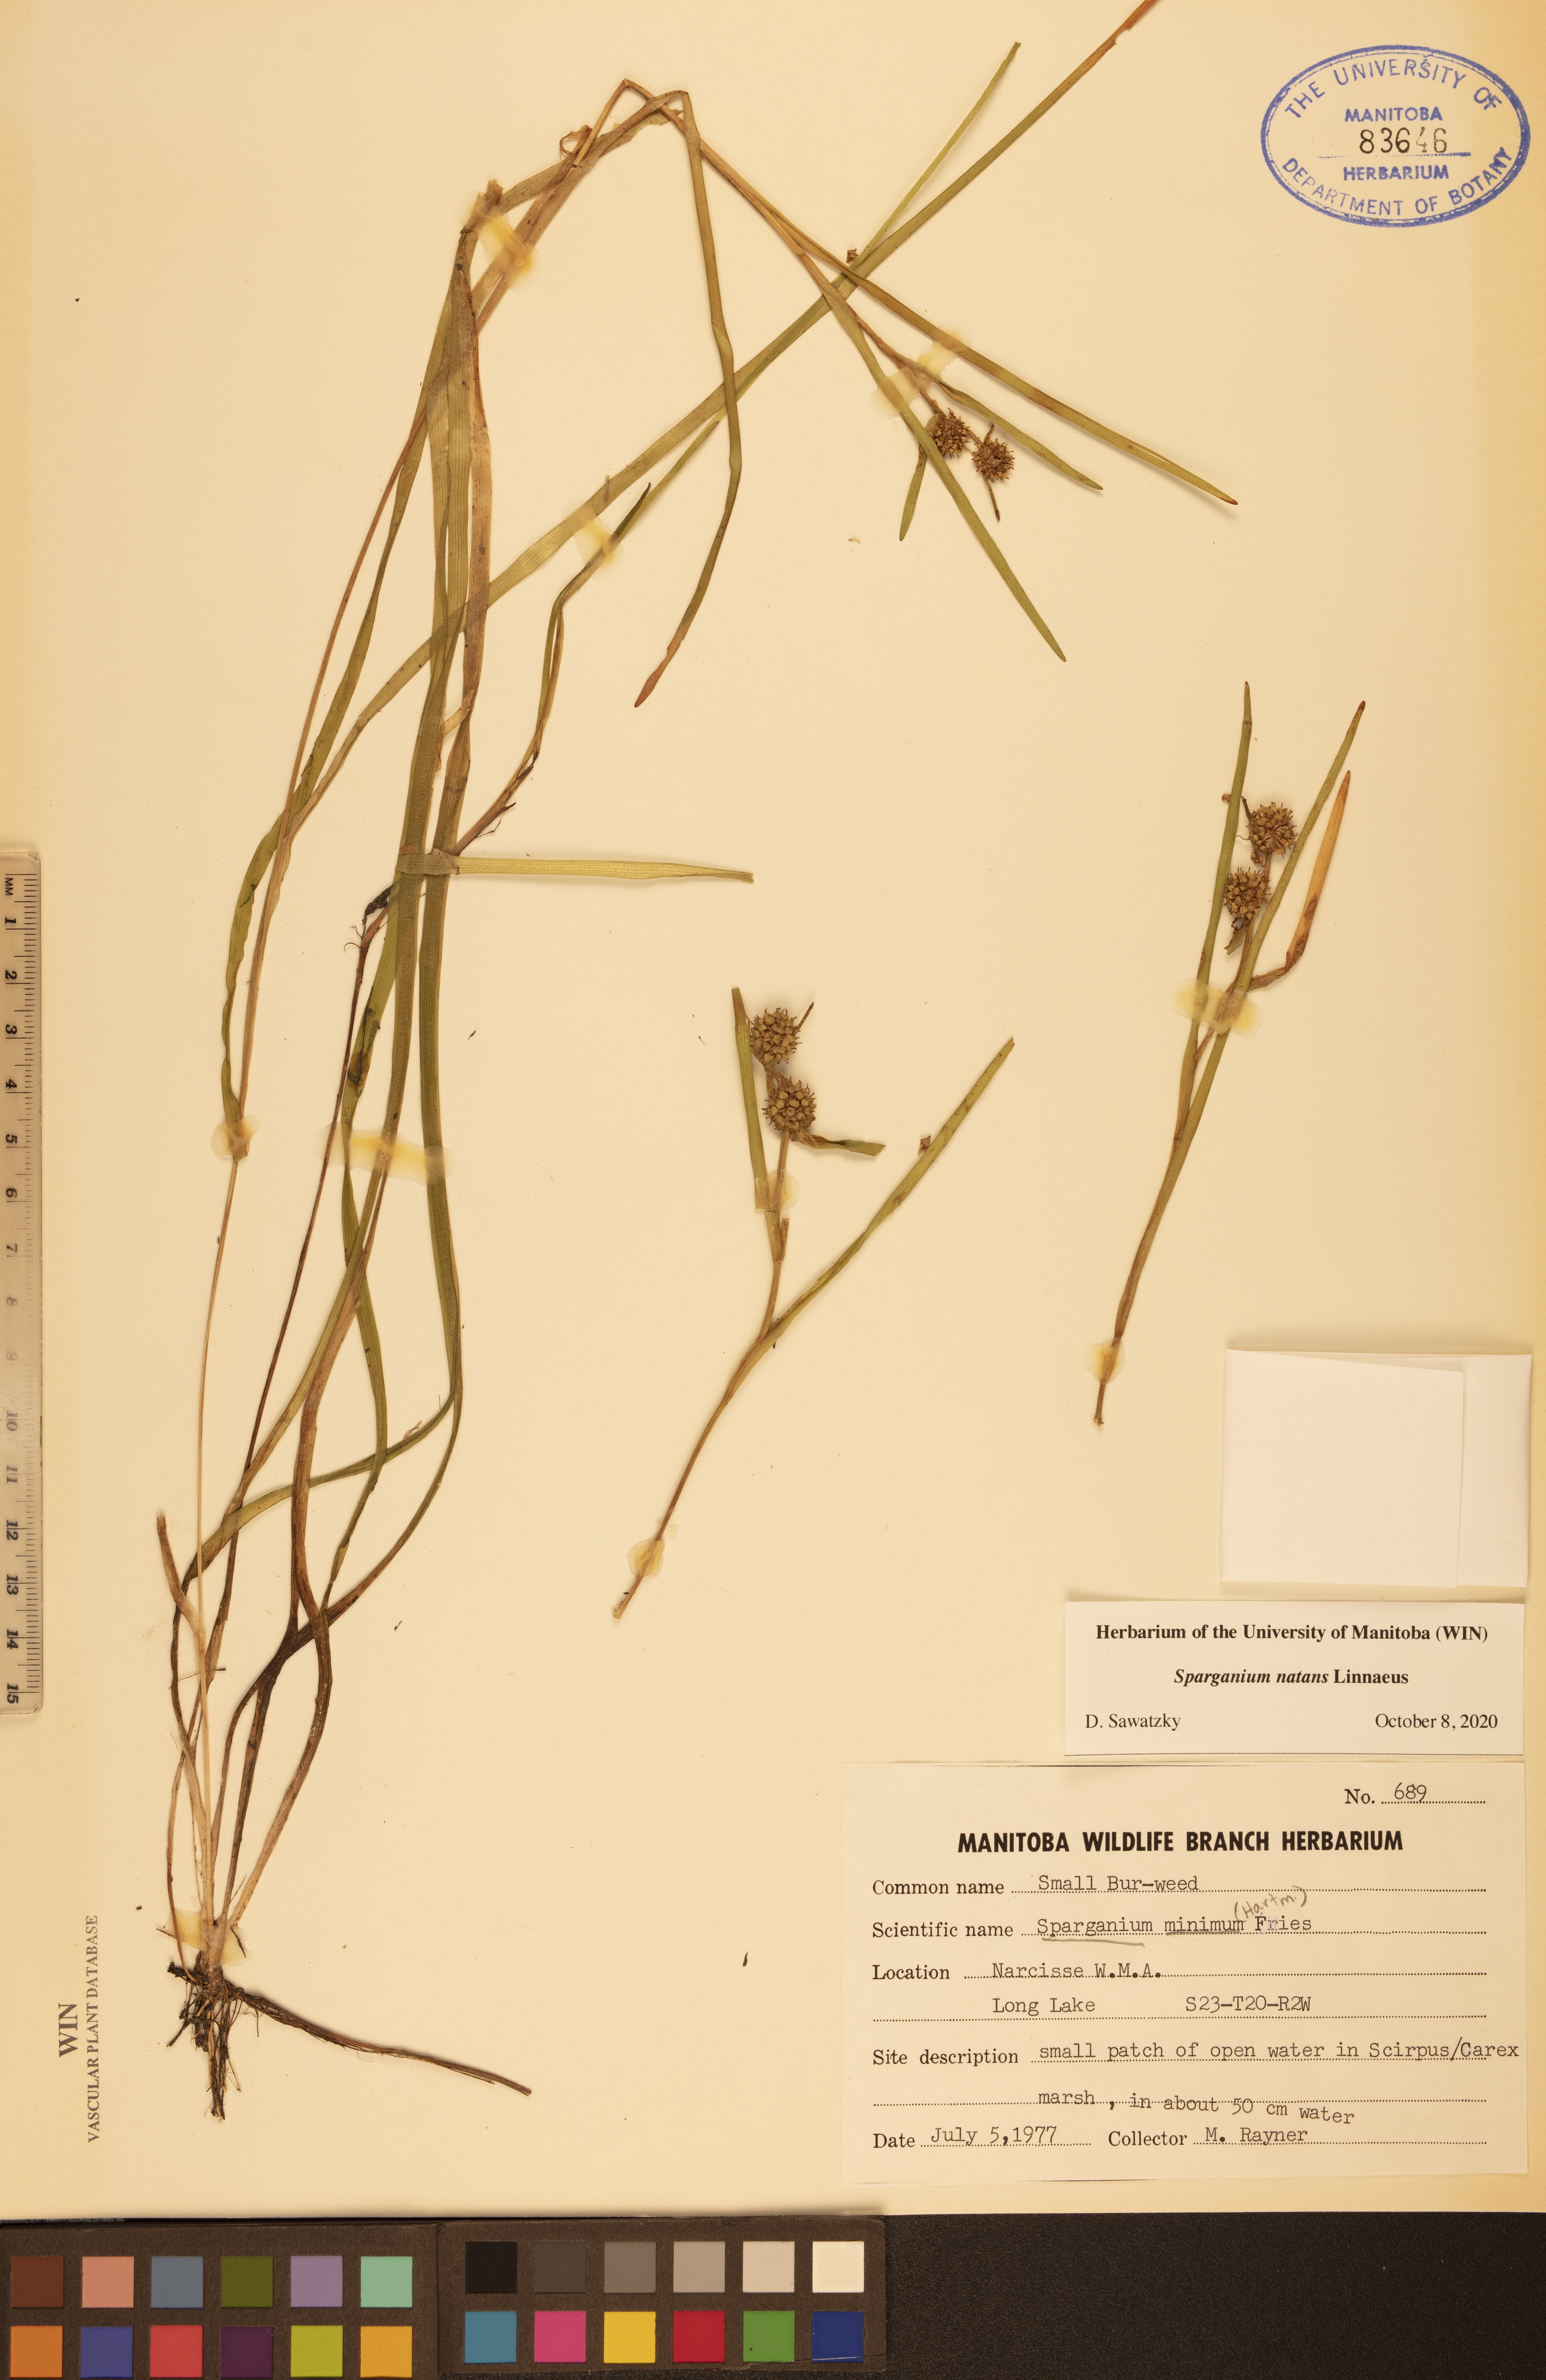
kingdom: Plantae
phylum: Tracheophyta
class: Liliopsida
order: Poales
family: Typhaceae
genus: Sparganium
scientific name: Sparganium natans
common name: Least bur-reed
